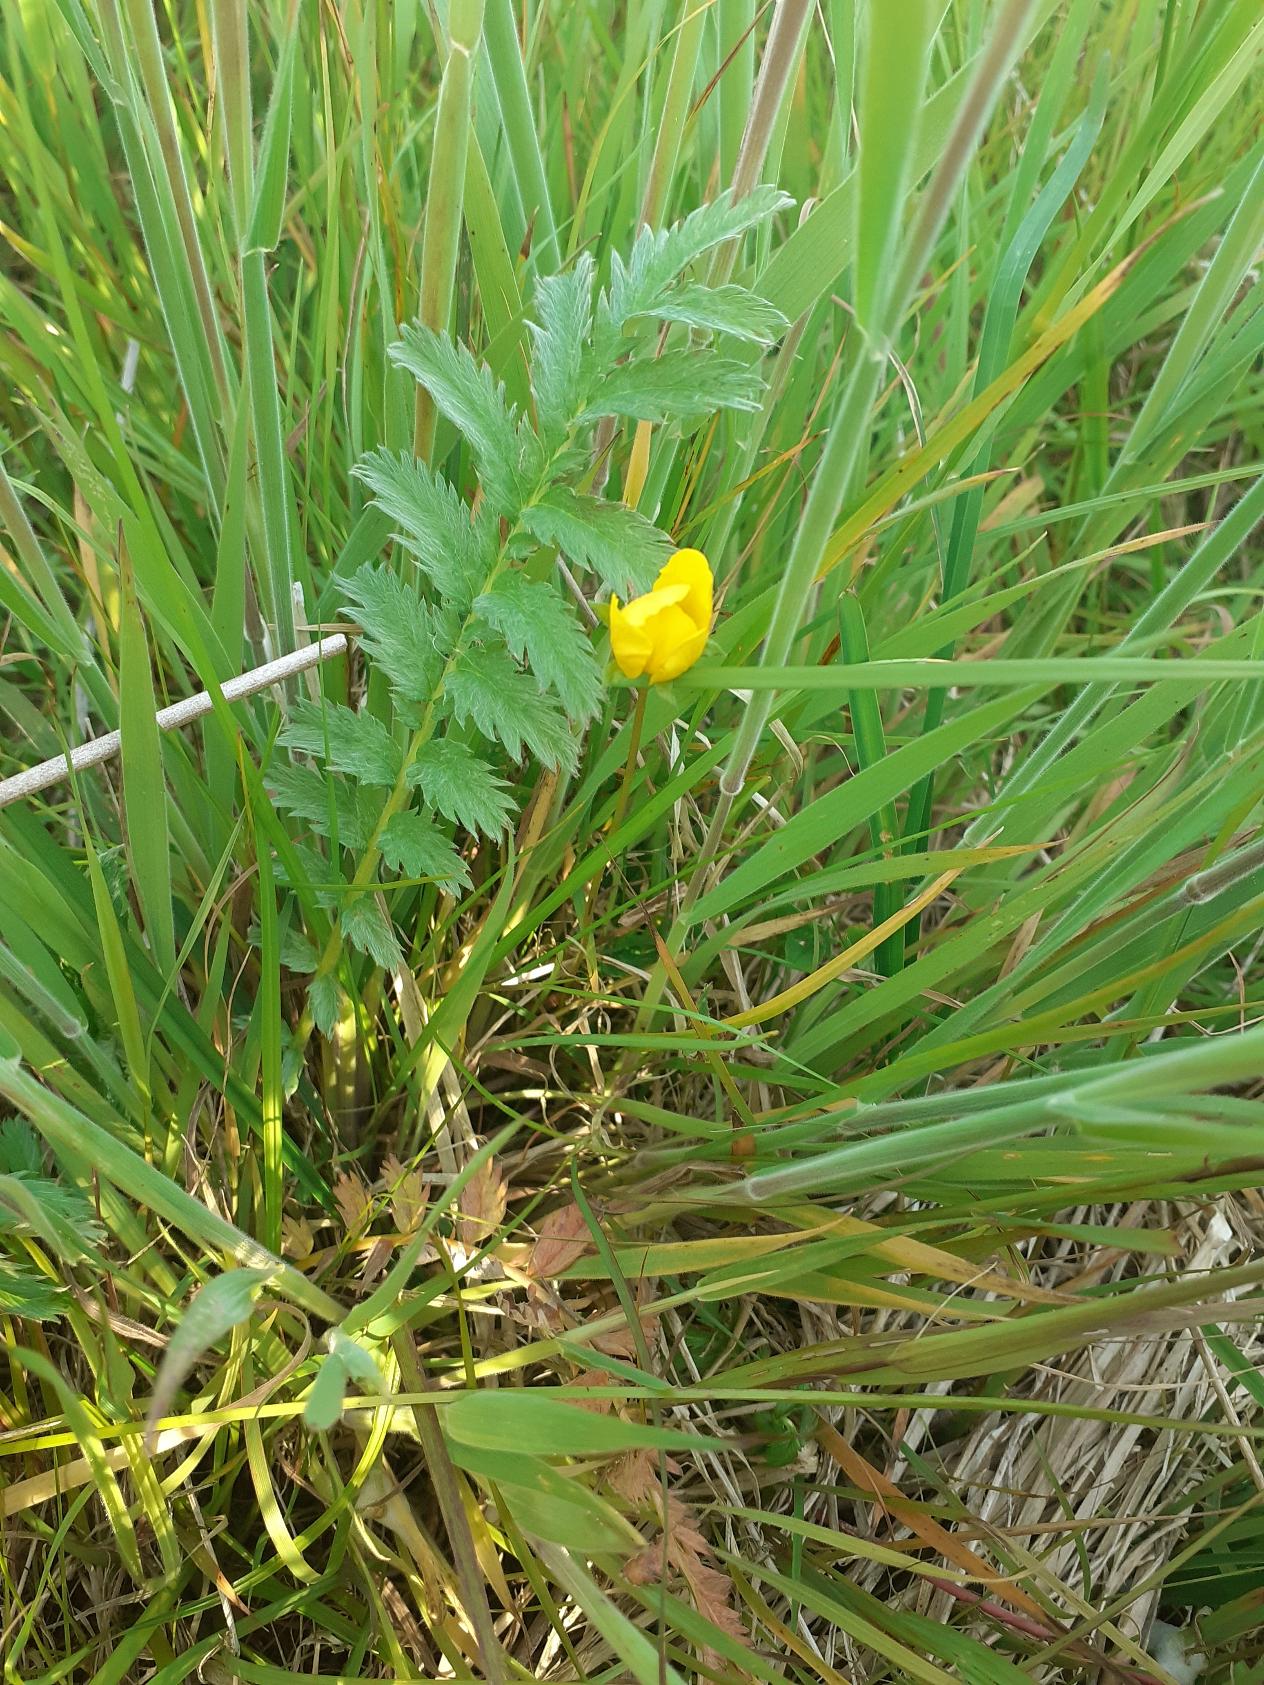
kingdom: Plantae
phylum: Tracheophyta
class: Magnoliopsida
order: Rosales
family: Rosaceae
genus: Argentina
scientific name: Argentina anserina
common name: Gåsepotentil
